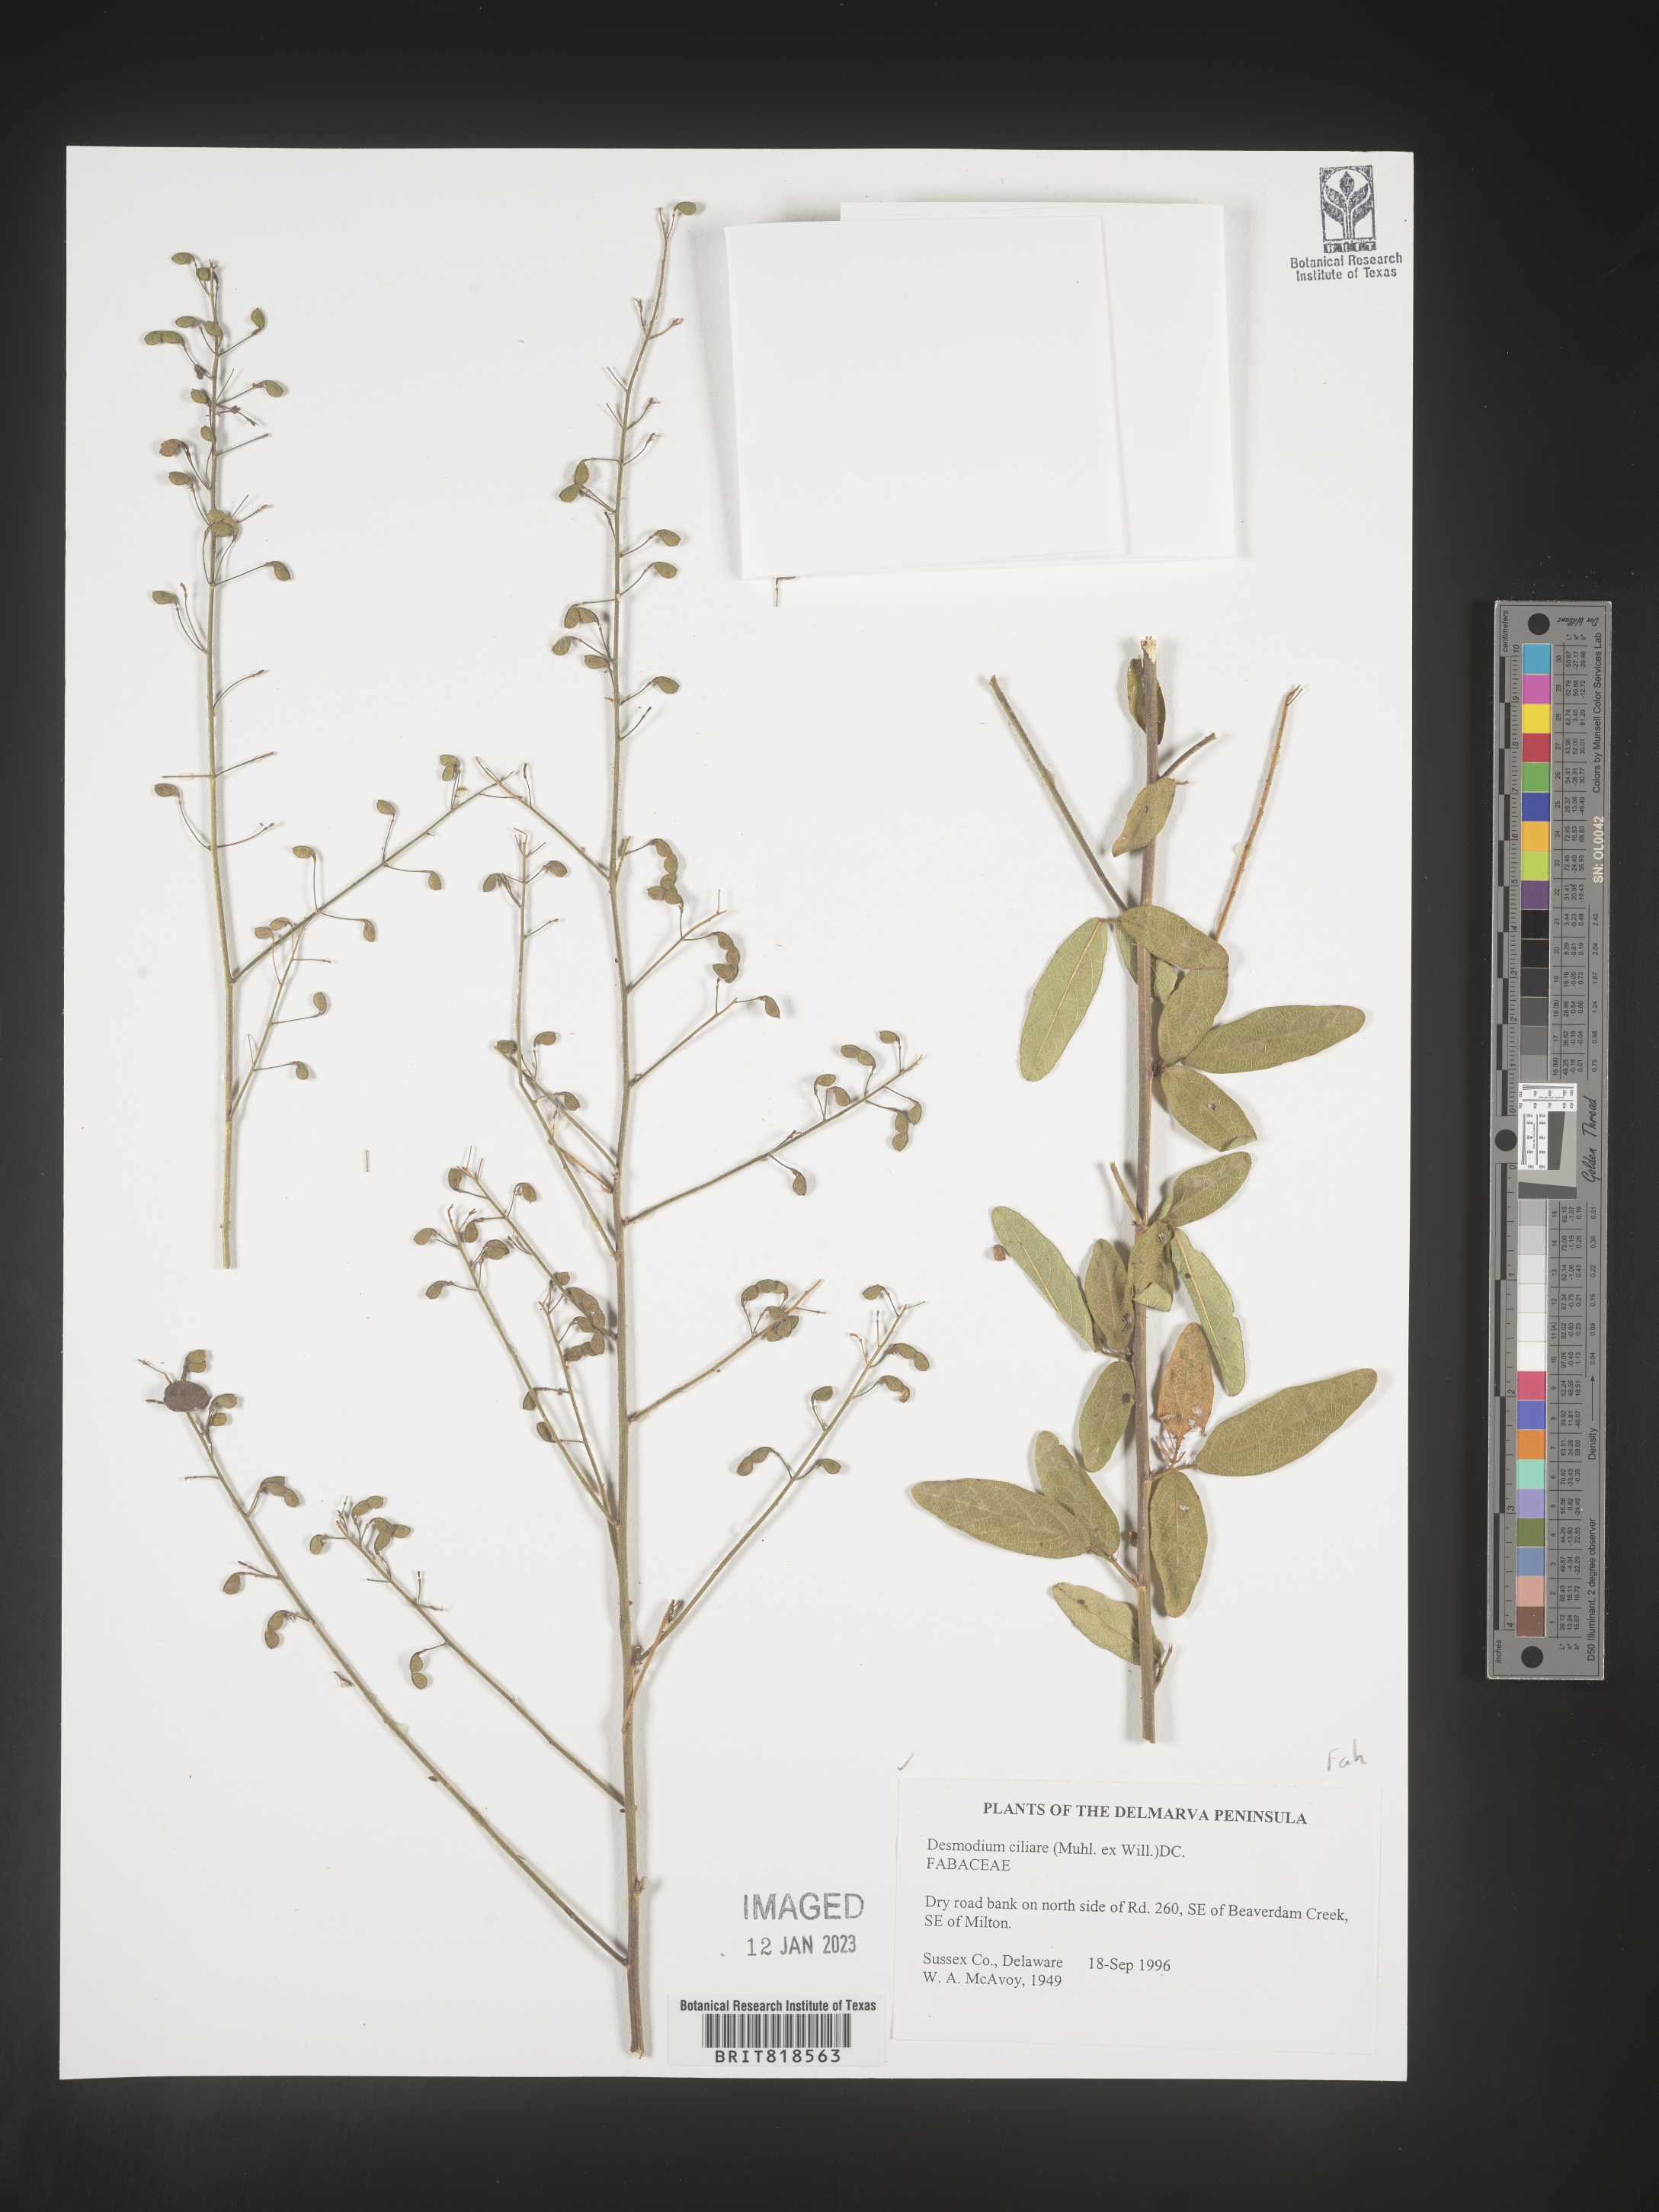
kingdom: Plantae
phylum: Tracheophyta
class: Magnoliopsida
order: Fabales
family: Fabaceae
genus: Desmodium
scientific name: Desmodium ciliare
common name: Hairy small-leaf ticktrefoil
